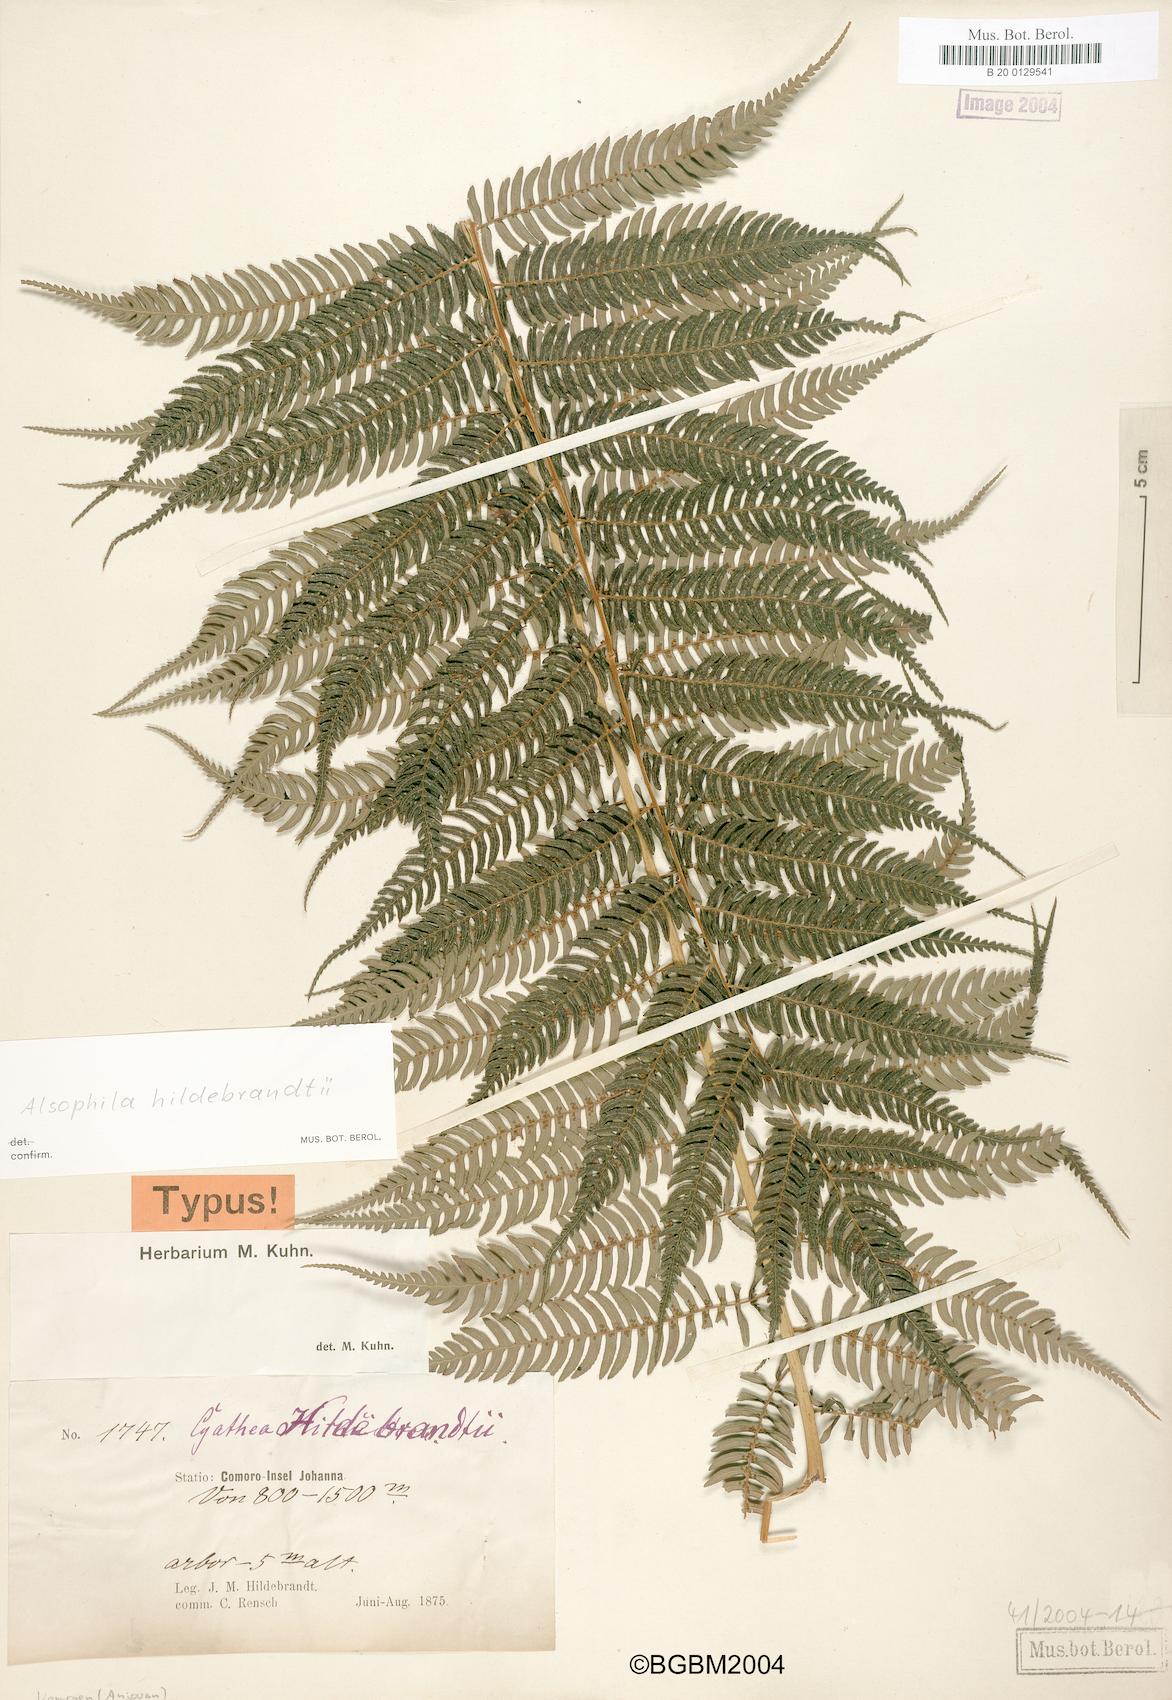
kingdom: Plantae
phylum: Tracheophyta
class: Polypodiopsida
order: Cyatheales
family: Cyatheaceae
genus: Gymnosphaera
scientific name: Gymnosphaera boivinii
